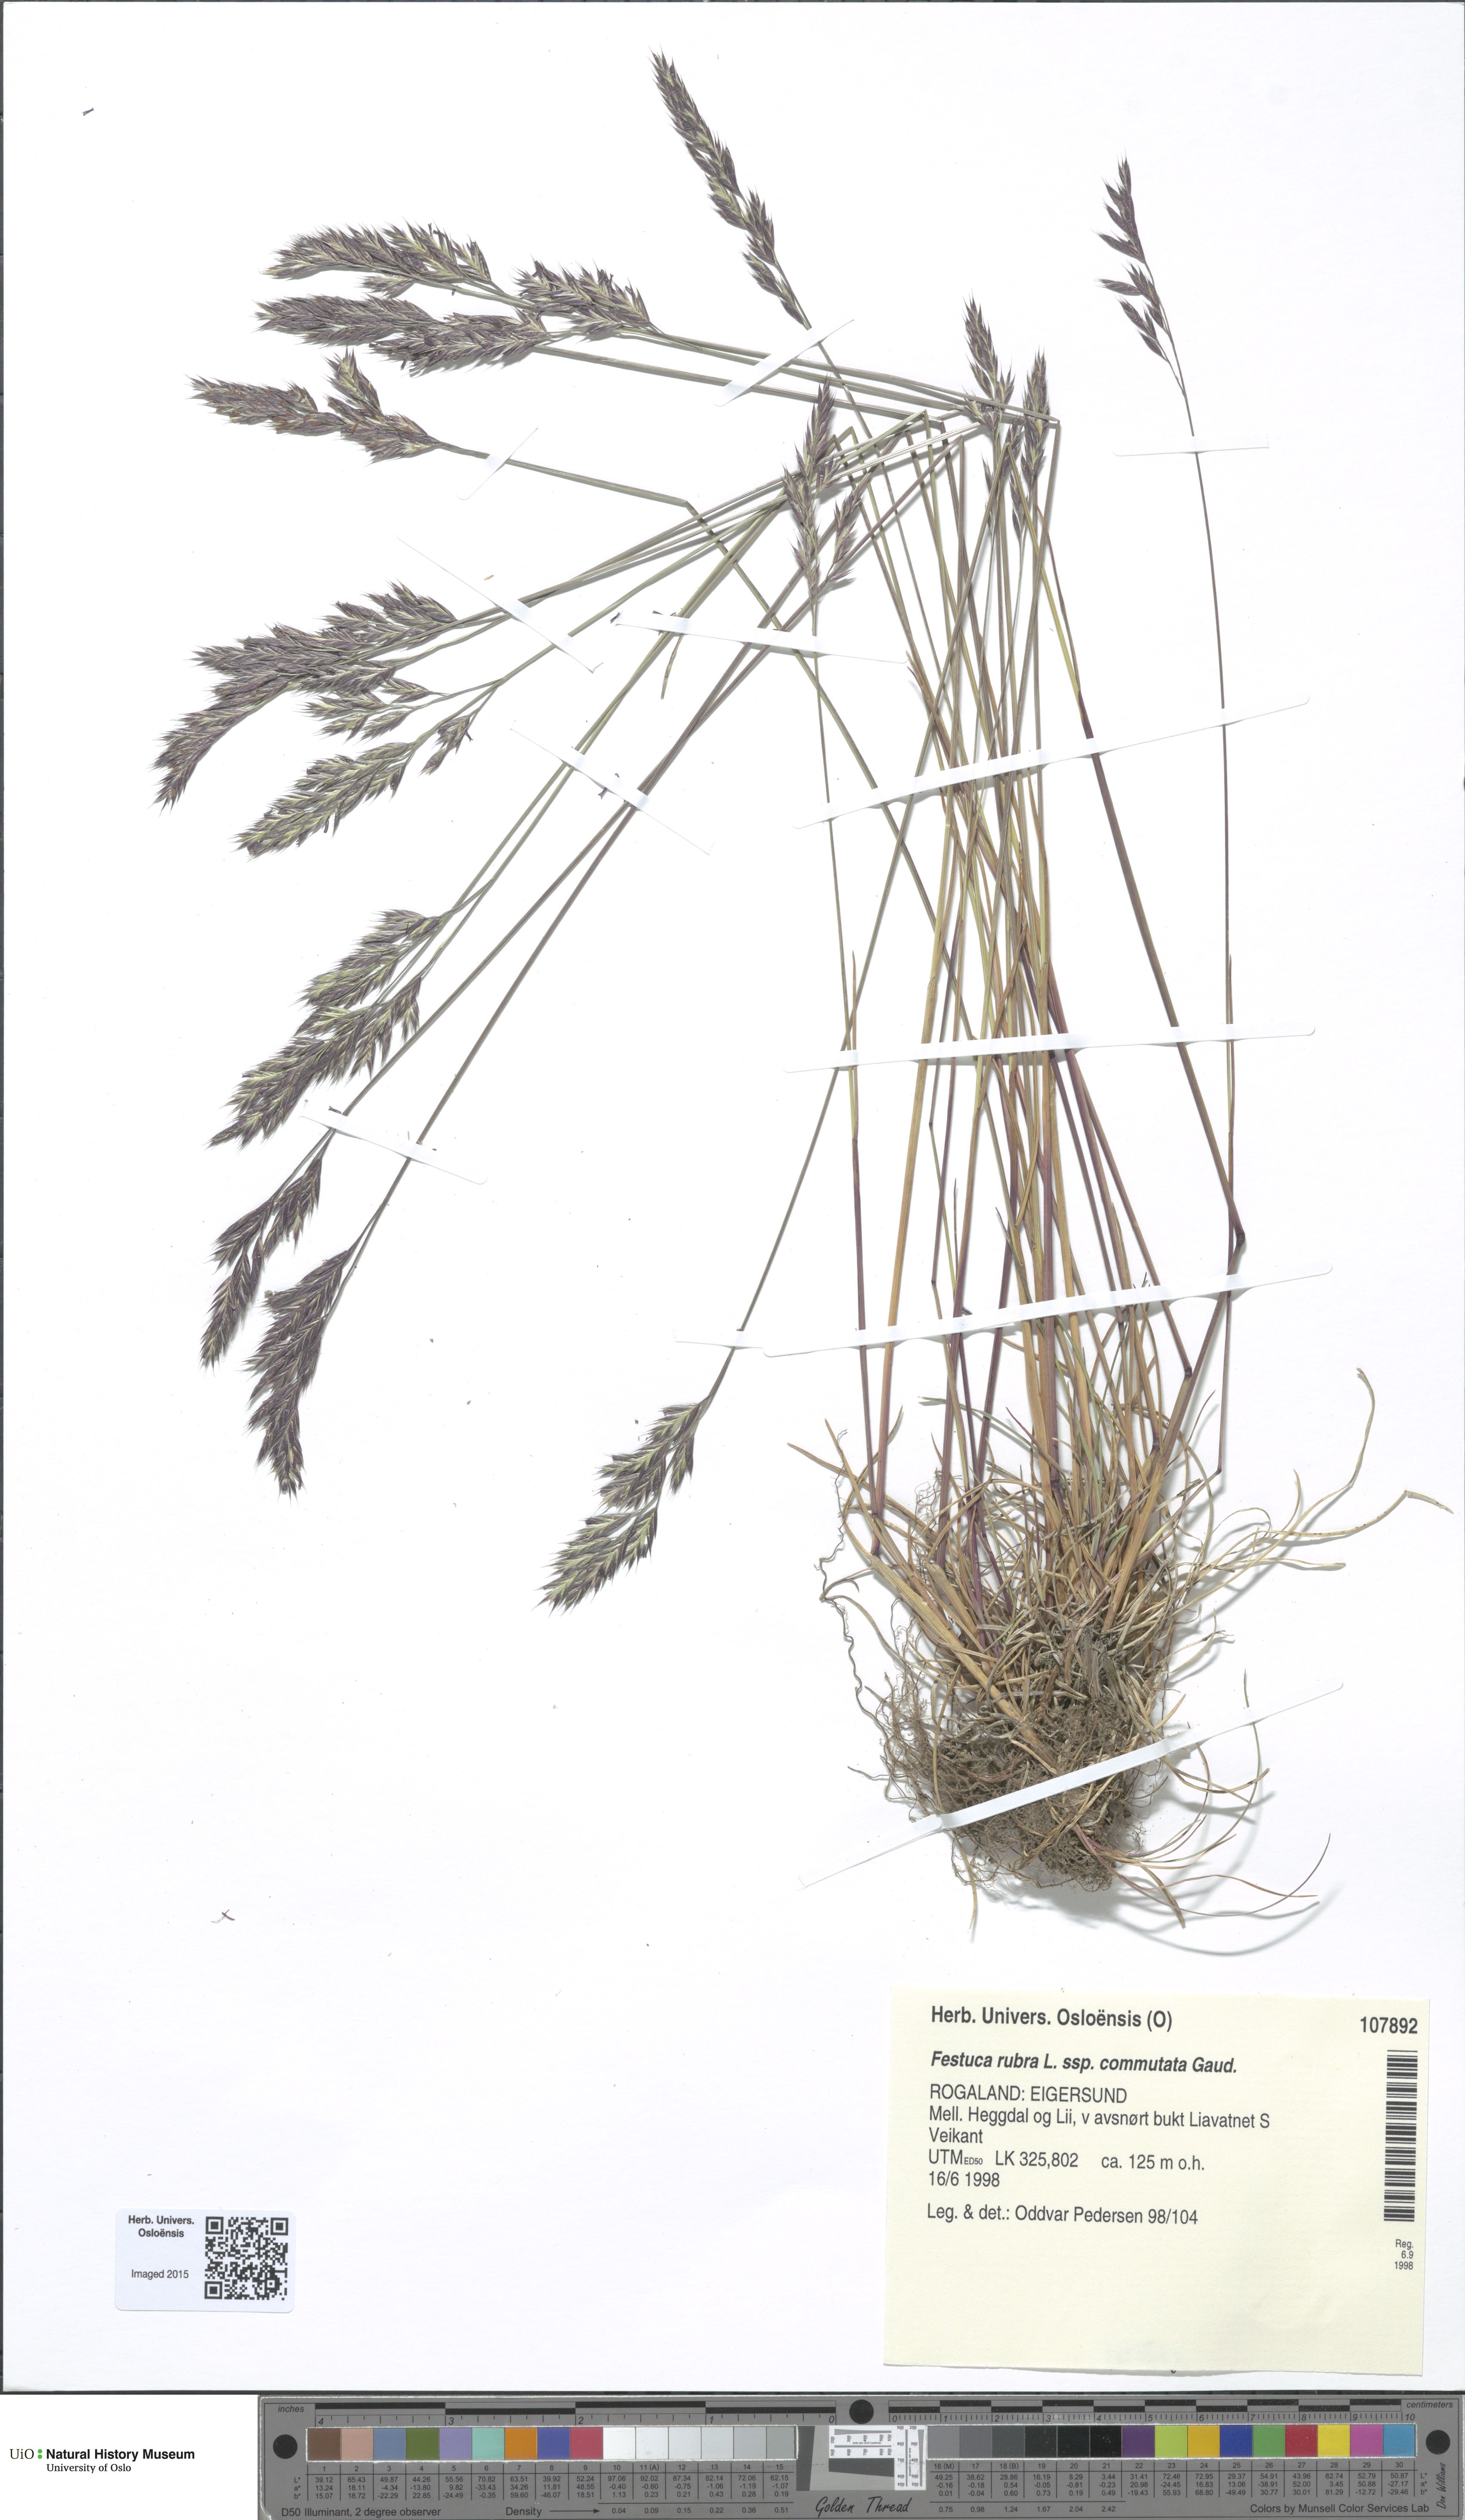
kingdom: Plantae
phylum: Tracheophyta
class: Liliopsida
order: Poales
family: Poaceae
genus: Festuca
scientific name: Festuca rubra
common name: Red fescue
